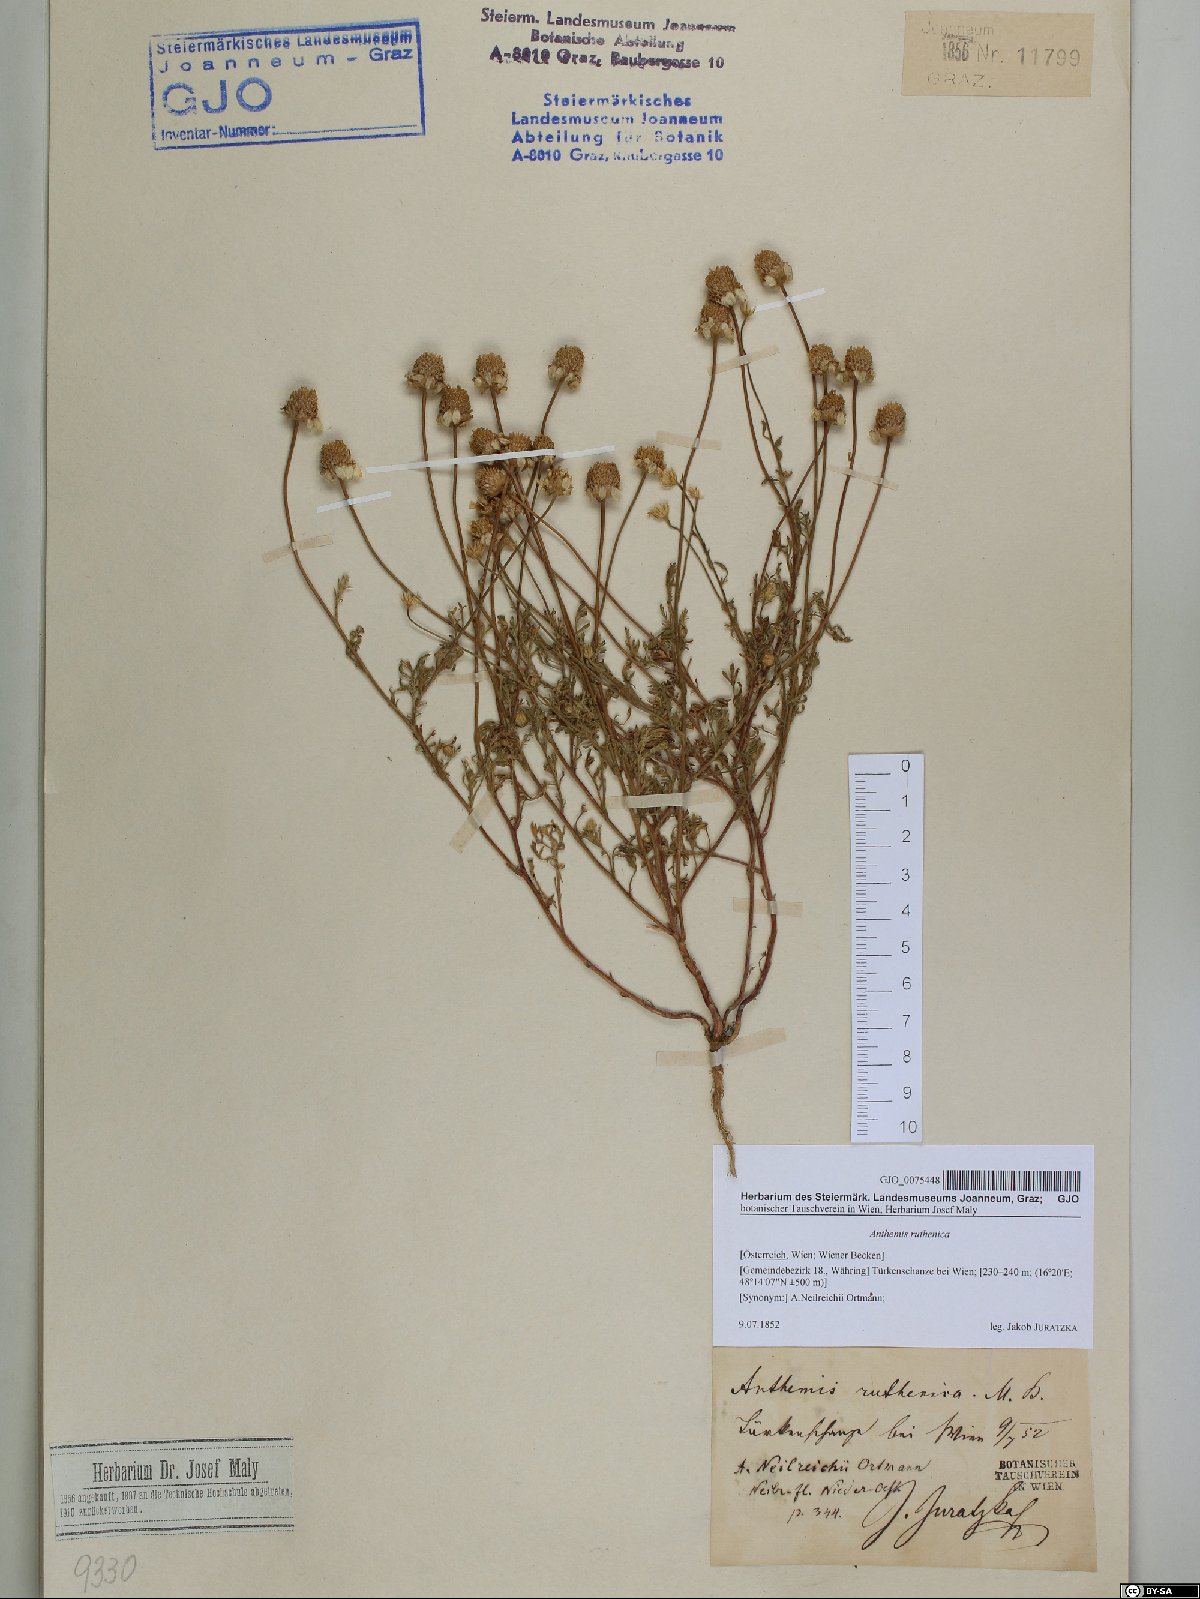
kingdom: Plantae
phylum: Tracheophyta
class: Magnoliopsida
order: Asterales
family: Asteraceae
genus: Anthemis
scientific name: Anthemis ruthenica
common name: Eastern chamomile
